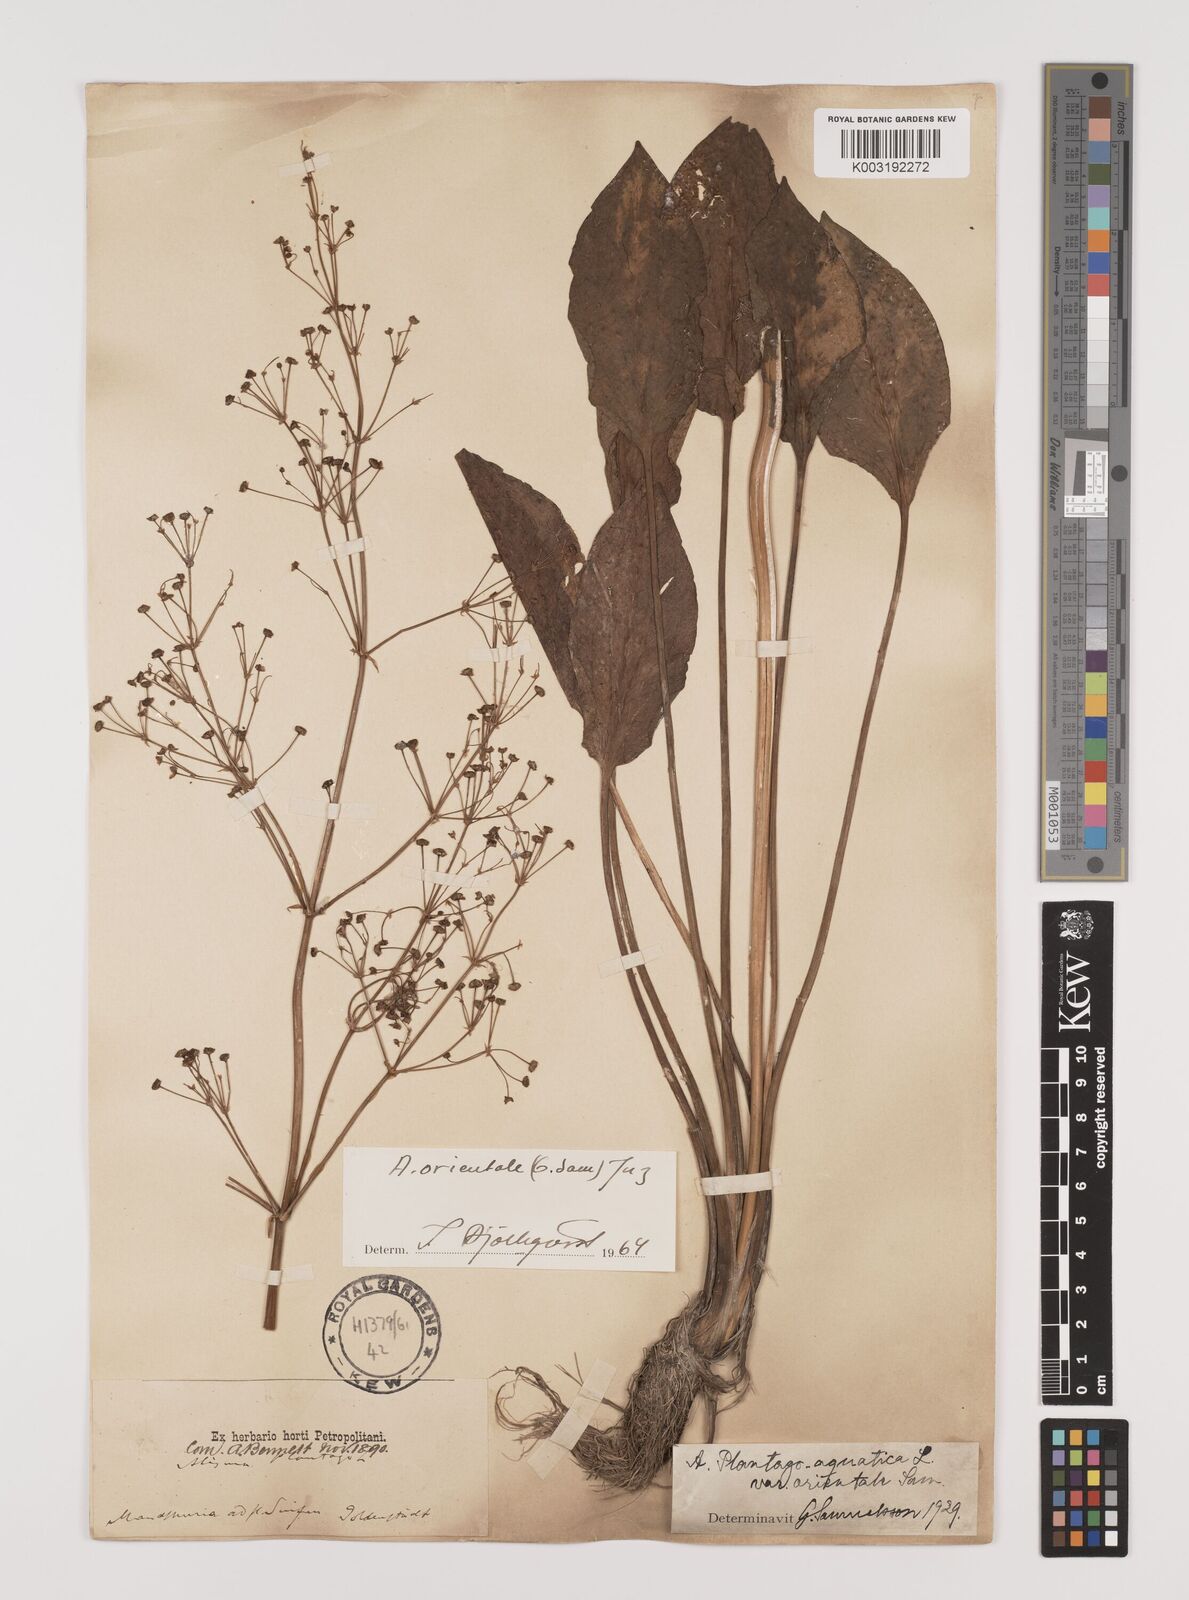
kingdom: Plantae
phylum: Tracheophyta
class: Liliopsida
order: Alismatales
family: Alismataceae
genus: Alisma
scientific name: Alisma plantago-aquatica
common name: Water-plantain
